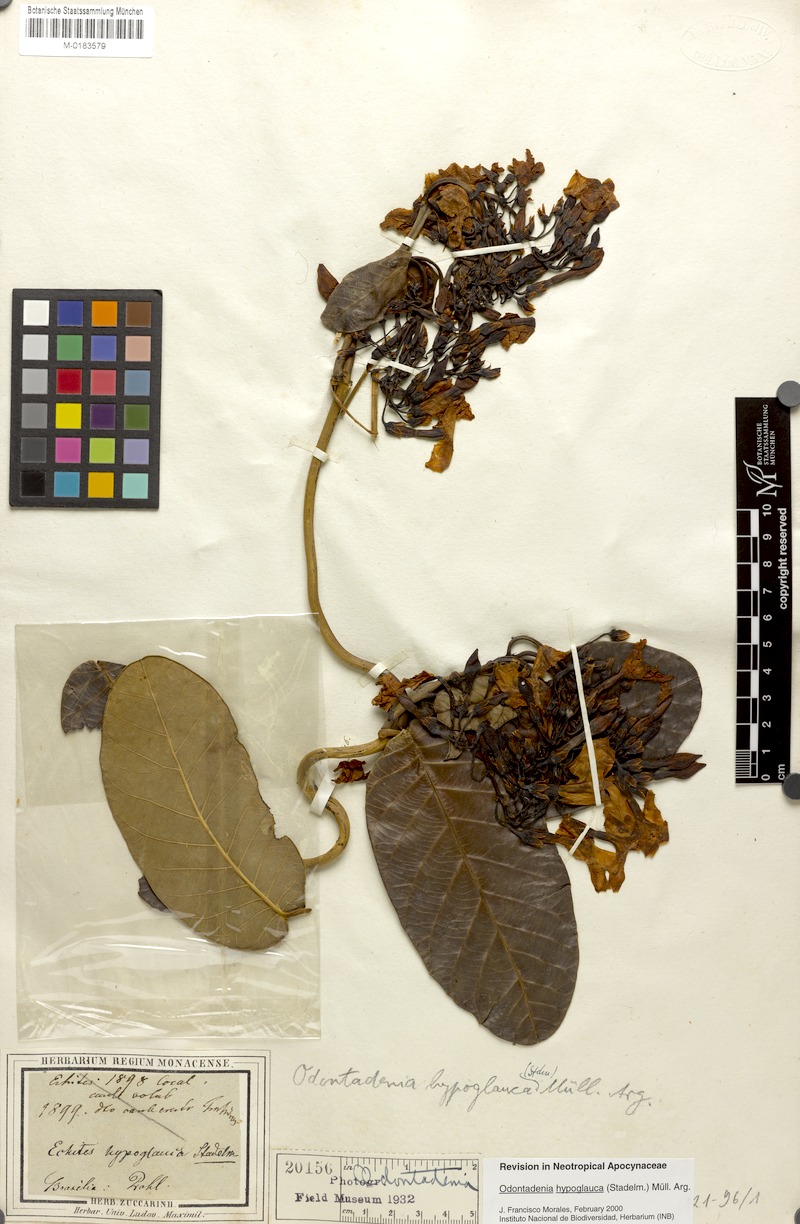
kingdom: Plantae
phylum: Tracheophyta
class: Magnoliopsida
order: Gentianales
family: Apocynaceae
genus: Odontadenia
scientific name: Odontadenia hypoglauca
